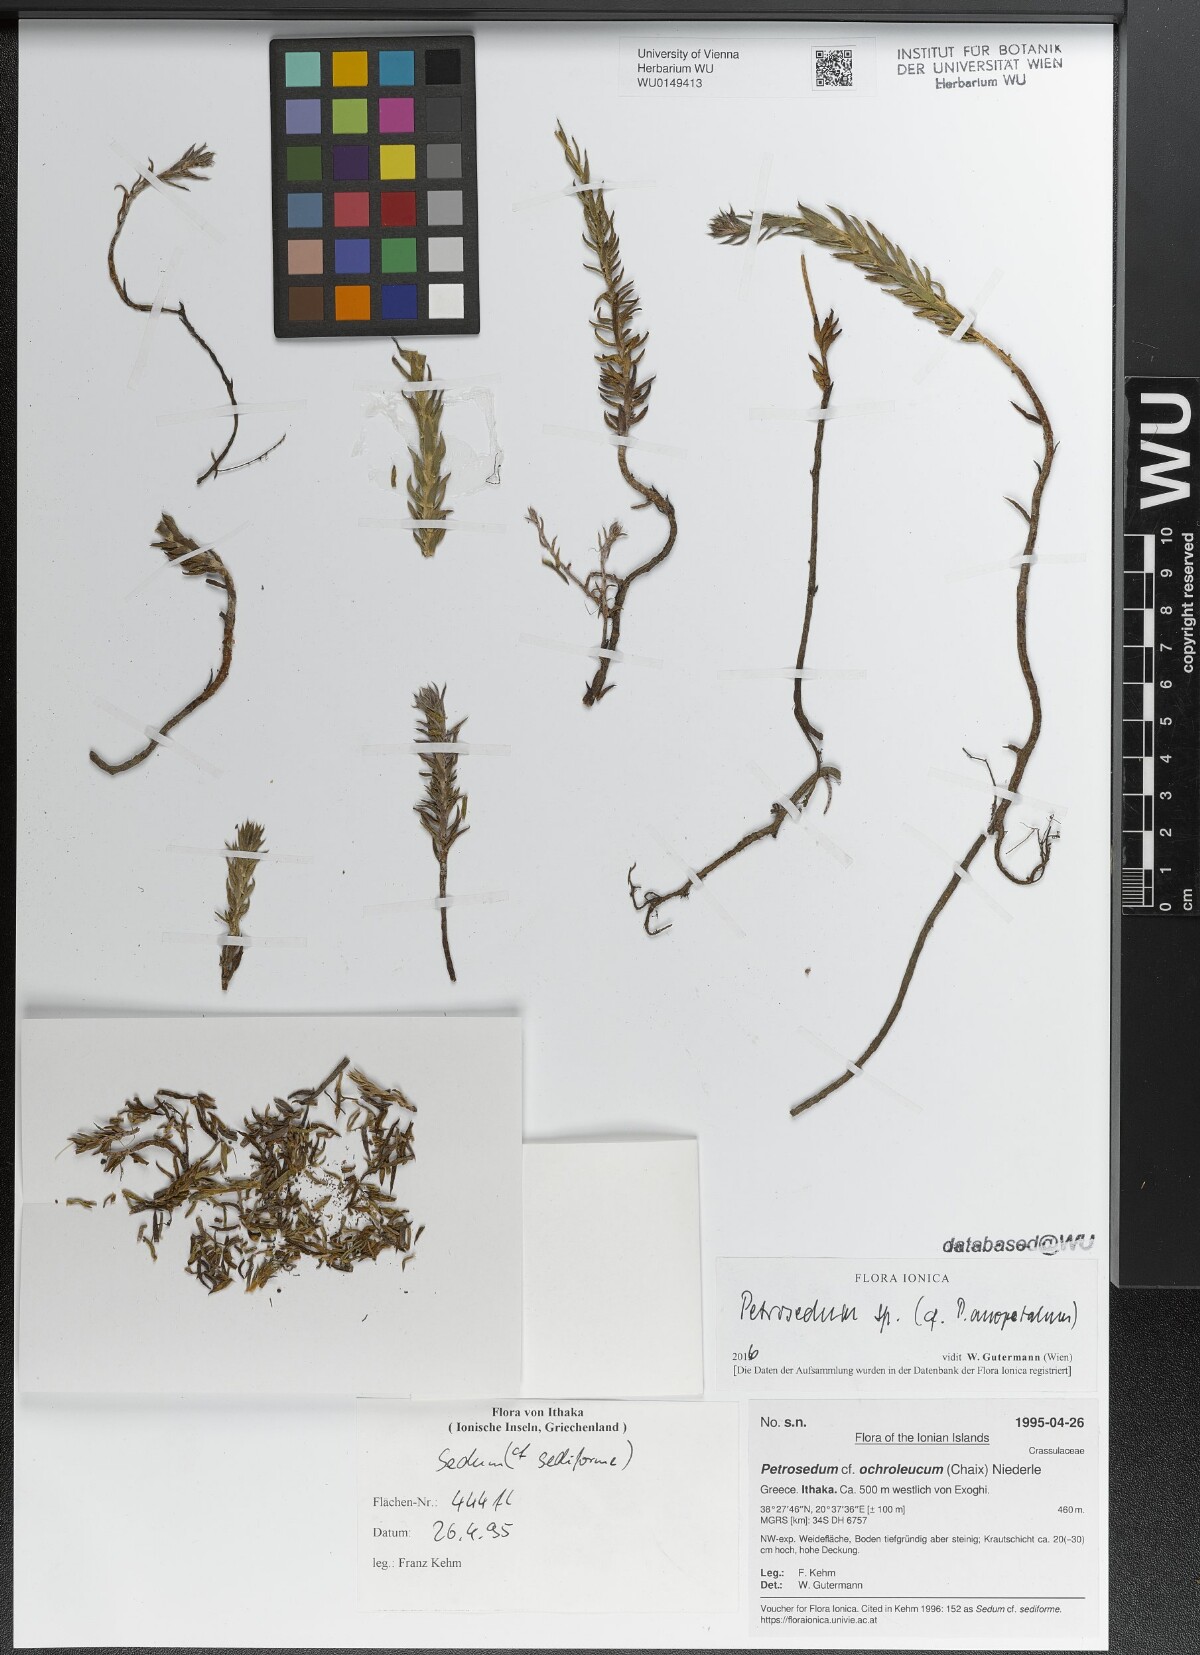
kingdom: Plantae
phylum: Tracheophyta
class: Magnoliopsida
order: Saxifragales
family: Crassulaceae
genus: Petrosedum
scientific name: Petrosedum ochroleucum
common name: European stonecrop
